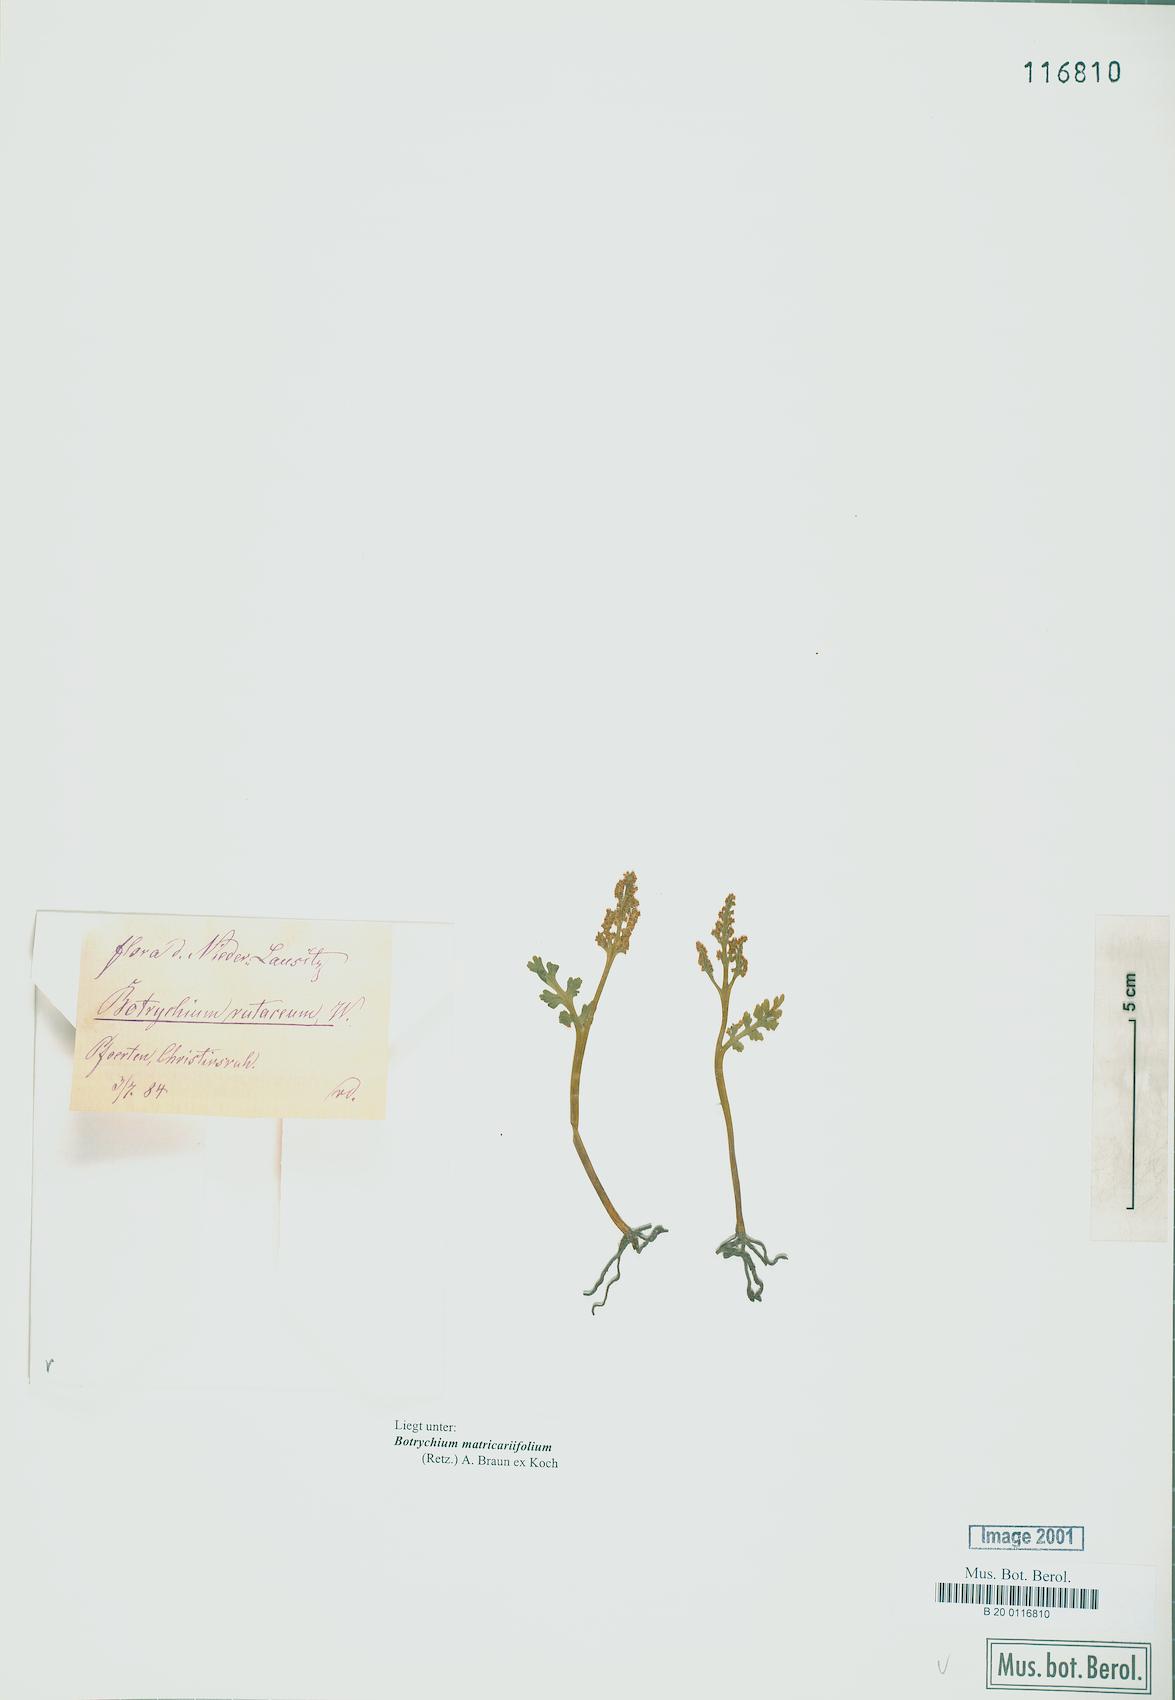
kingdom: Plantae
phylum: Tracheophyta
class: Polypodiopsida
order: Ophioglossales
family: Ophioglossaceae
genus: Botrychium
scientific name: Botrychium matricariifolium
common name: Branched moonwort
